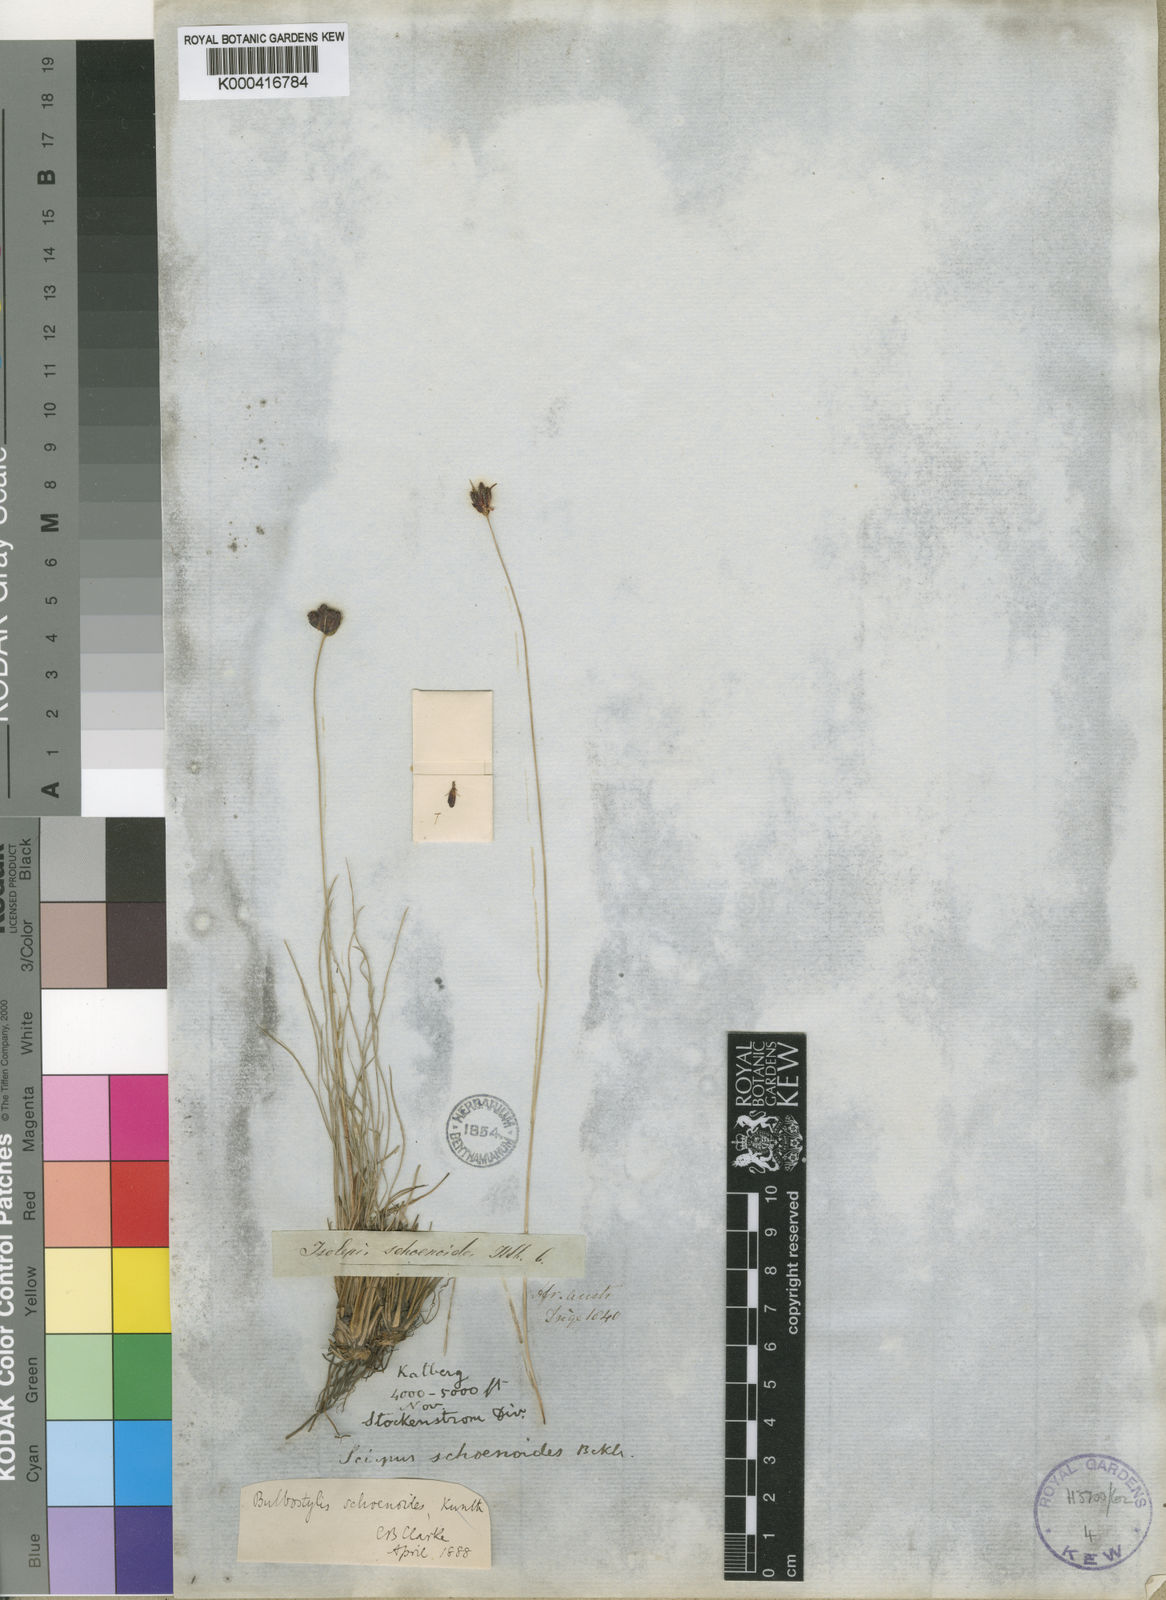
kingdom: Plantae
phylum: Tracheophyta
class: Liliopsida
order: Poales
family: Cyperaceae
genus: Bulbostylis
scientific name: Bulbostylis schoenoides
